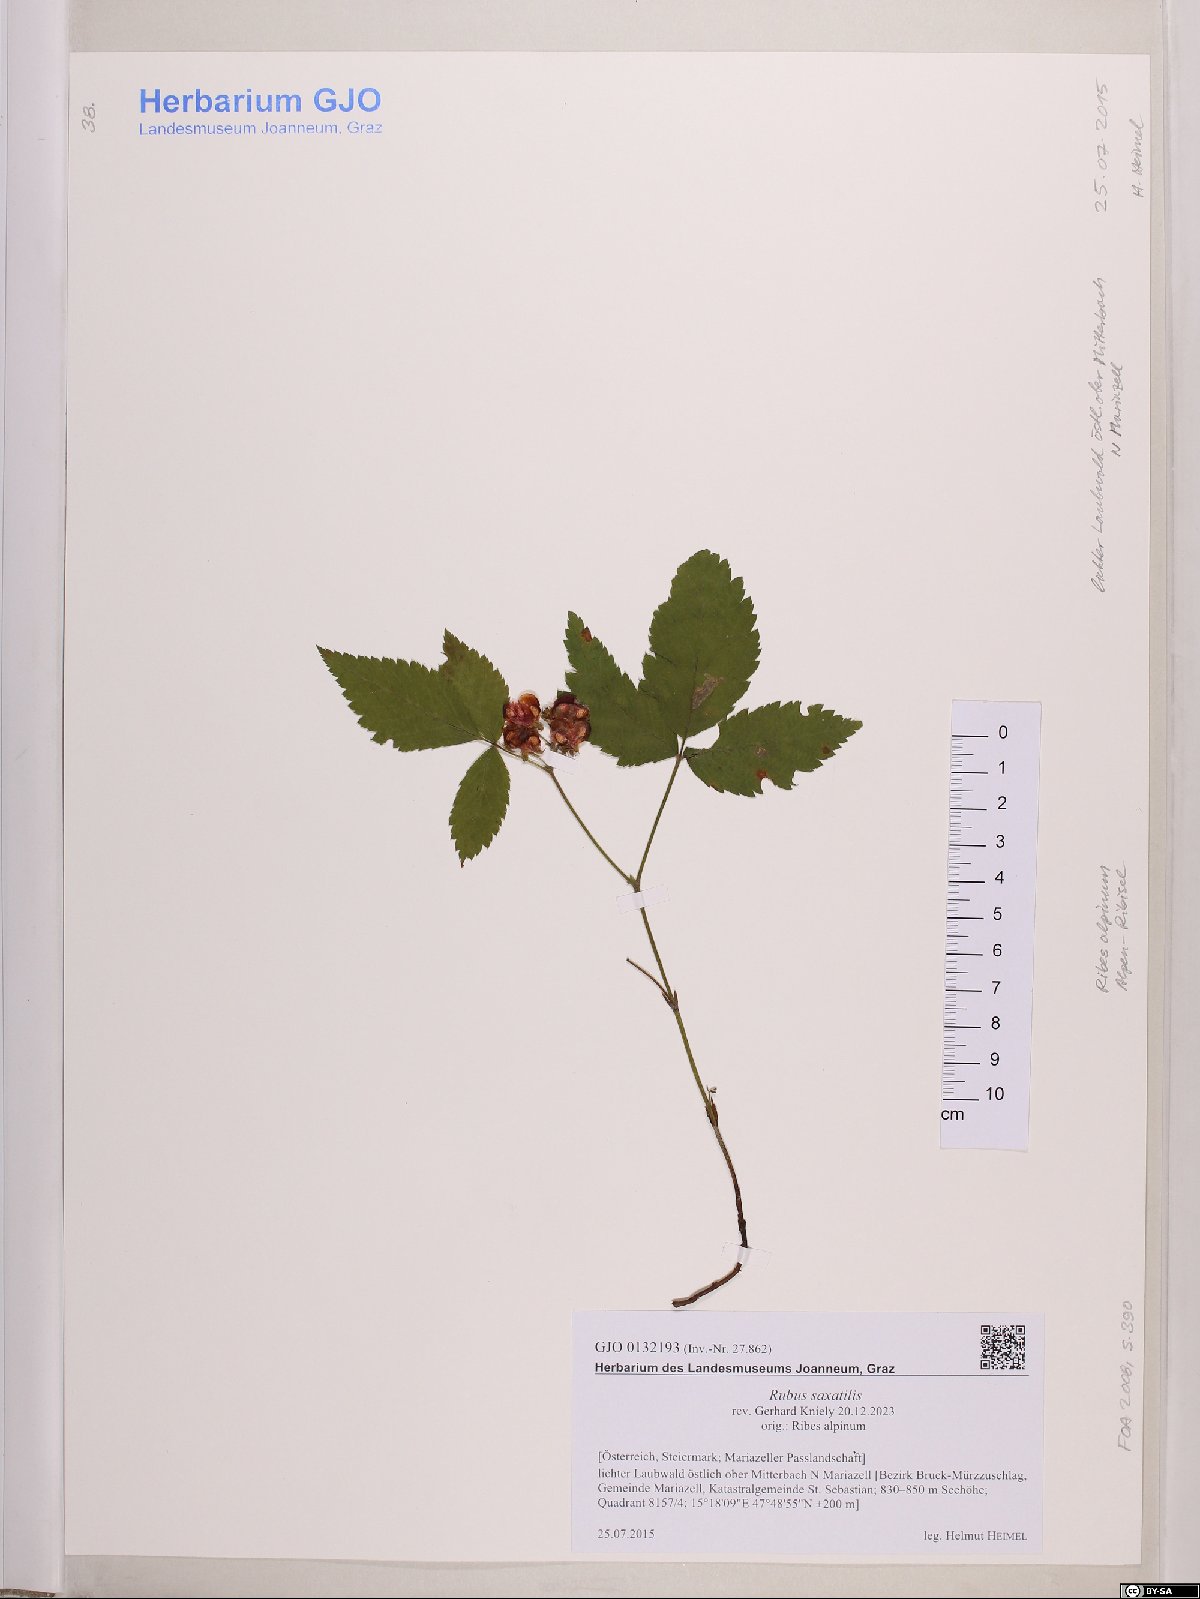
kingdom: Plantae
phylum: Tracheophyta
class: Magnoliopsida
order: Rosales
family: Rosaceae
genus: Rubus
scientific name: Rubus saxatilis
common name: Stone bramble
